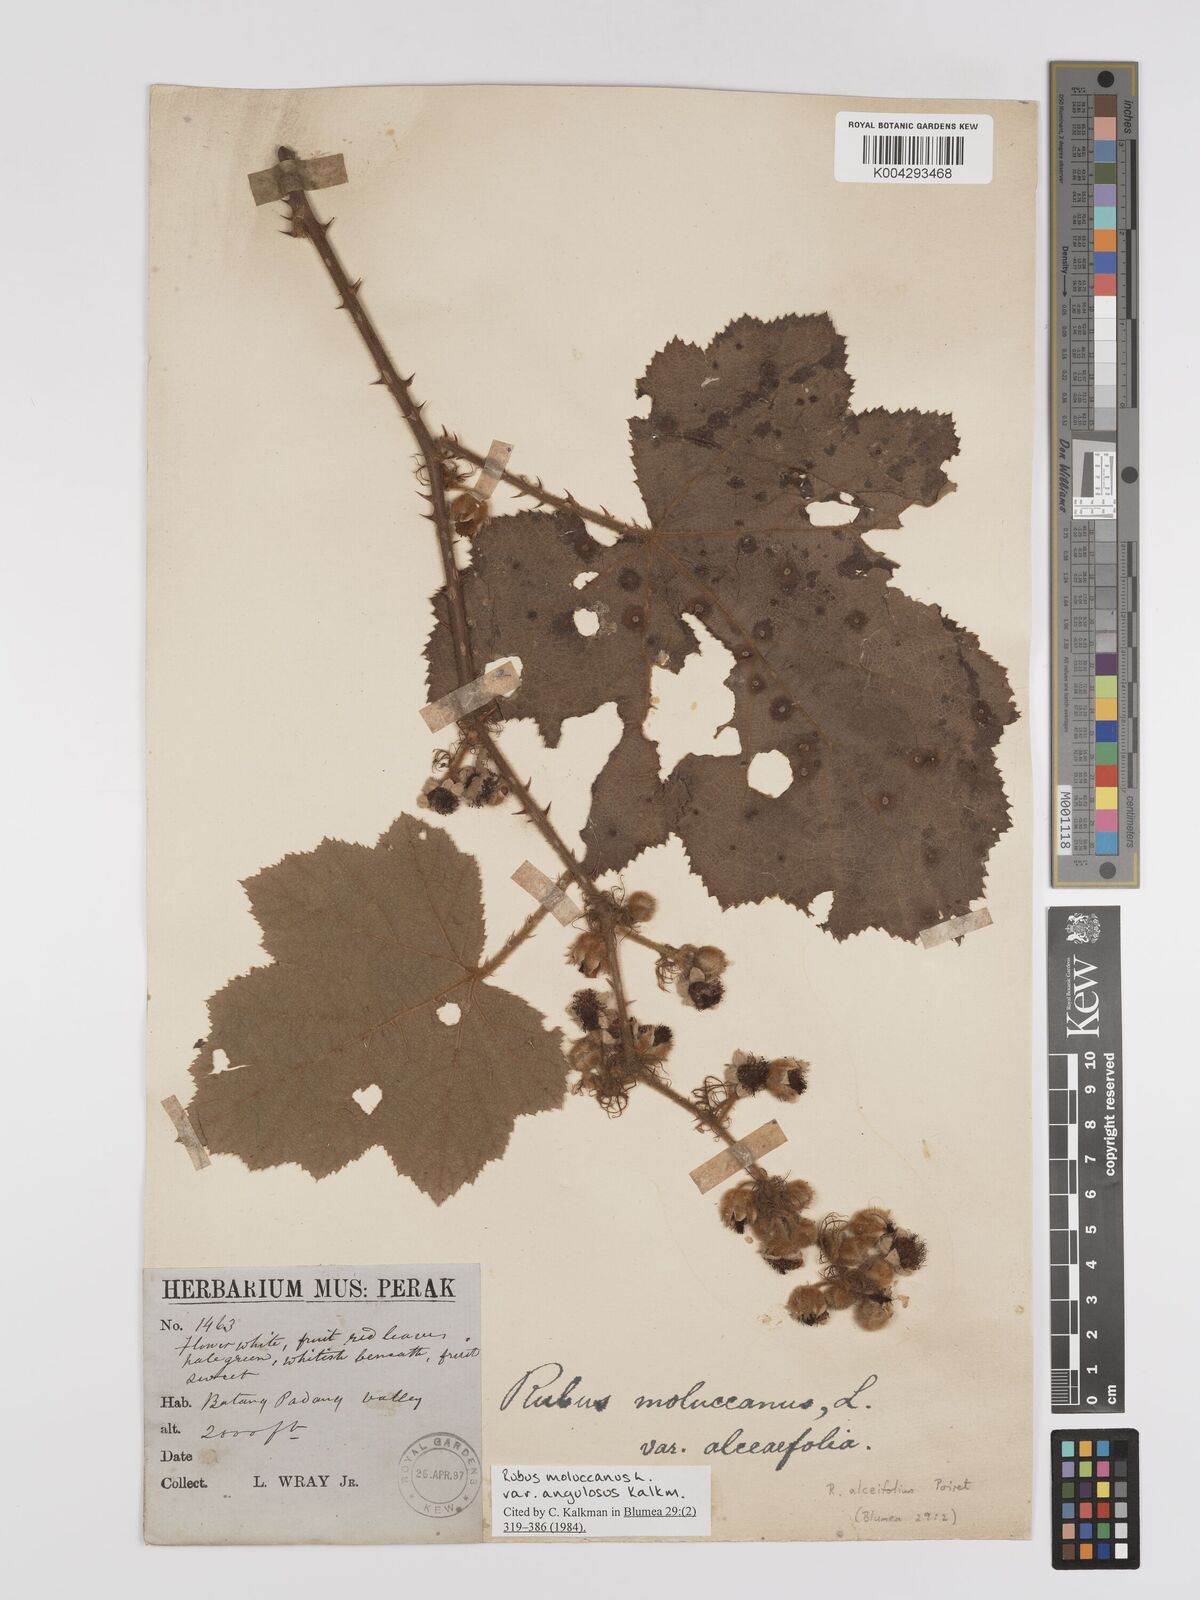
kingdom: Plantae
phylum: Tracheophyta
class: Magnoliopsida
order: Rosales
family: Rosaceae
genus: Rubus
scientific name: Rubus alceifolius
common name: Giant bramble
